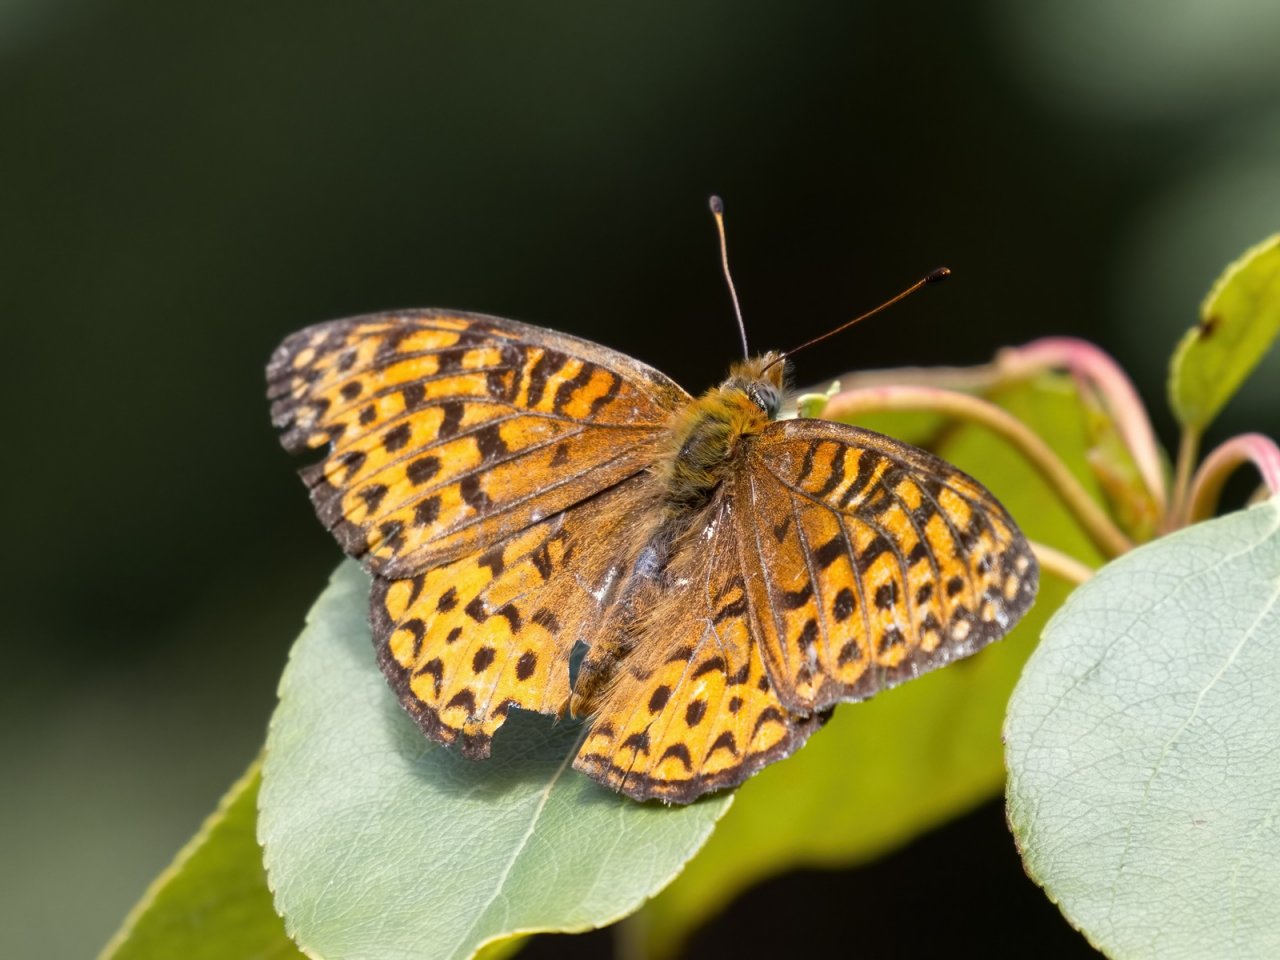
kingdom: Animalia
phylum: Arthropoda
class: Insecta
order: Lepidoptera
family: Nymphalidae
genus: Speyeria
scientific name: Speyeria atlantis
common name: Atlantis Fritillary
